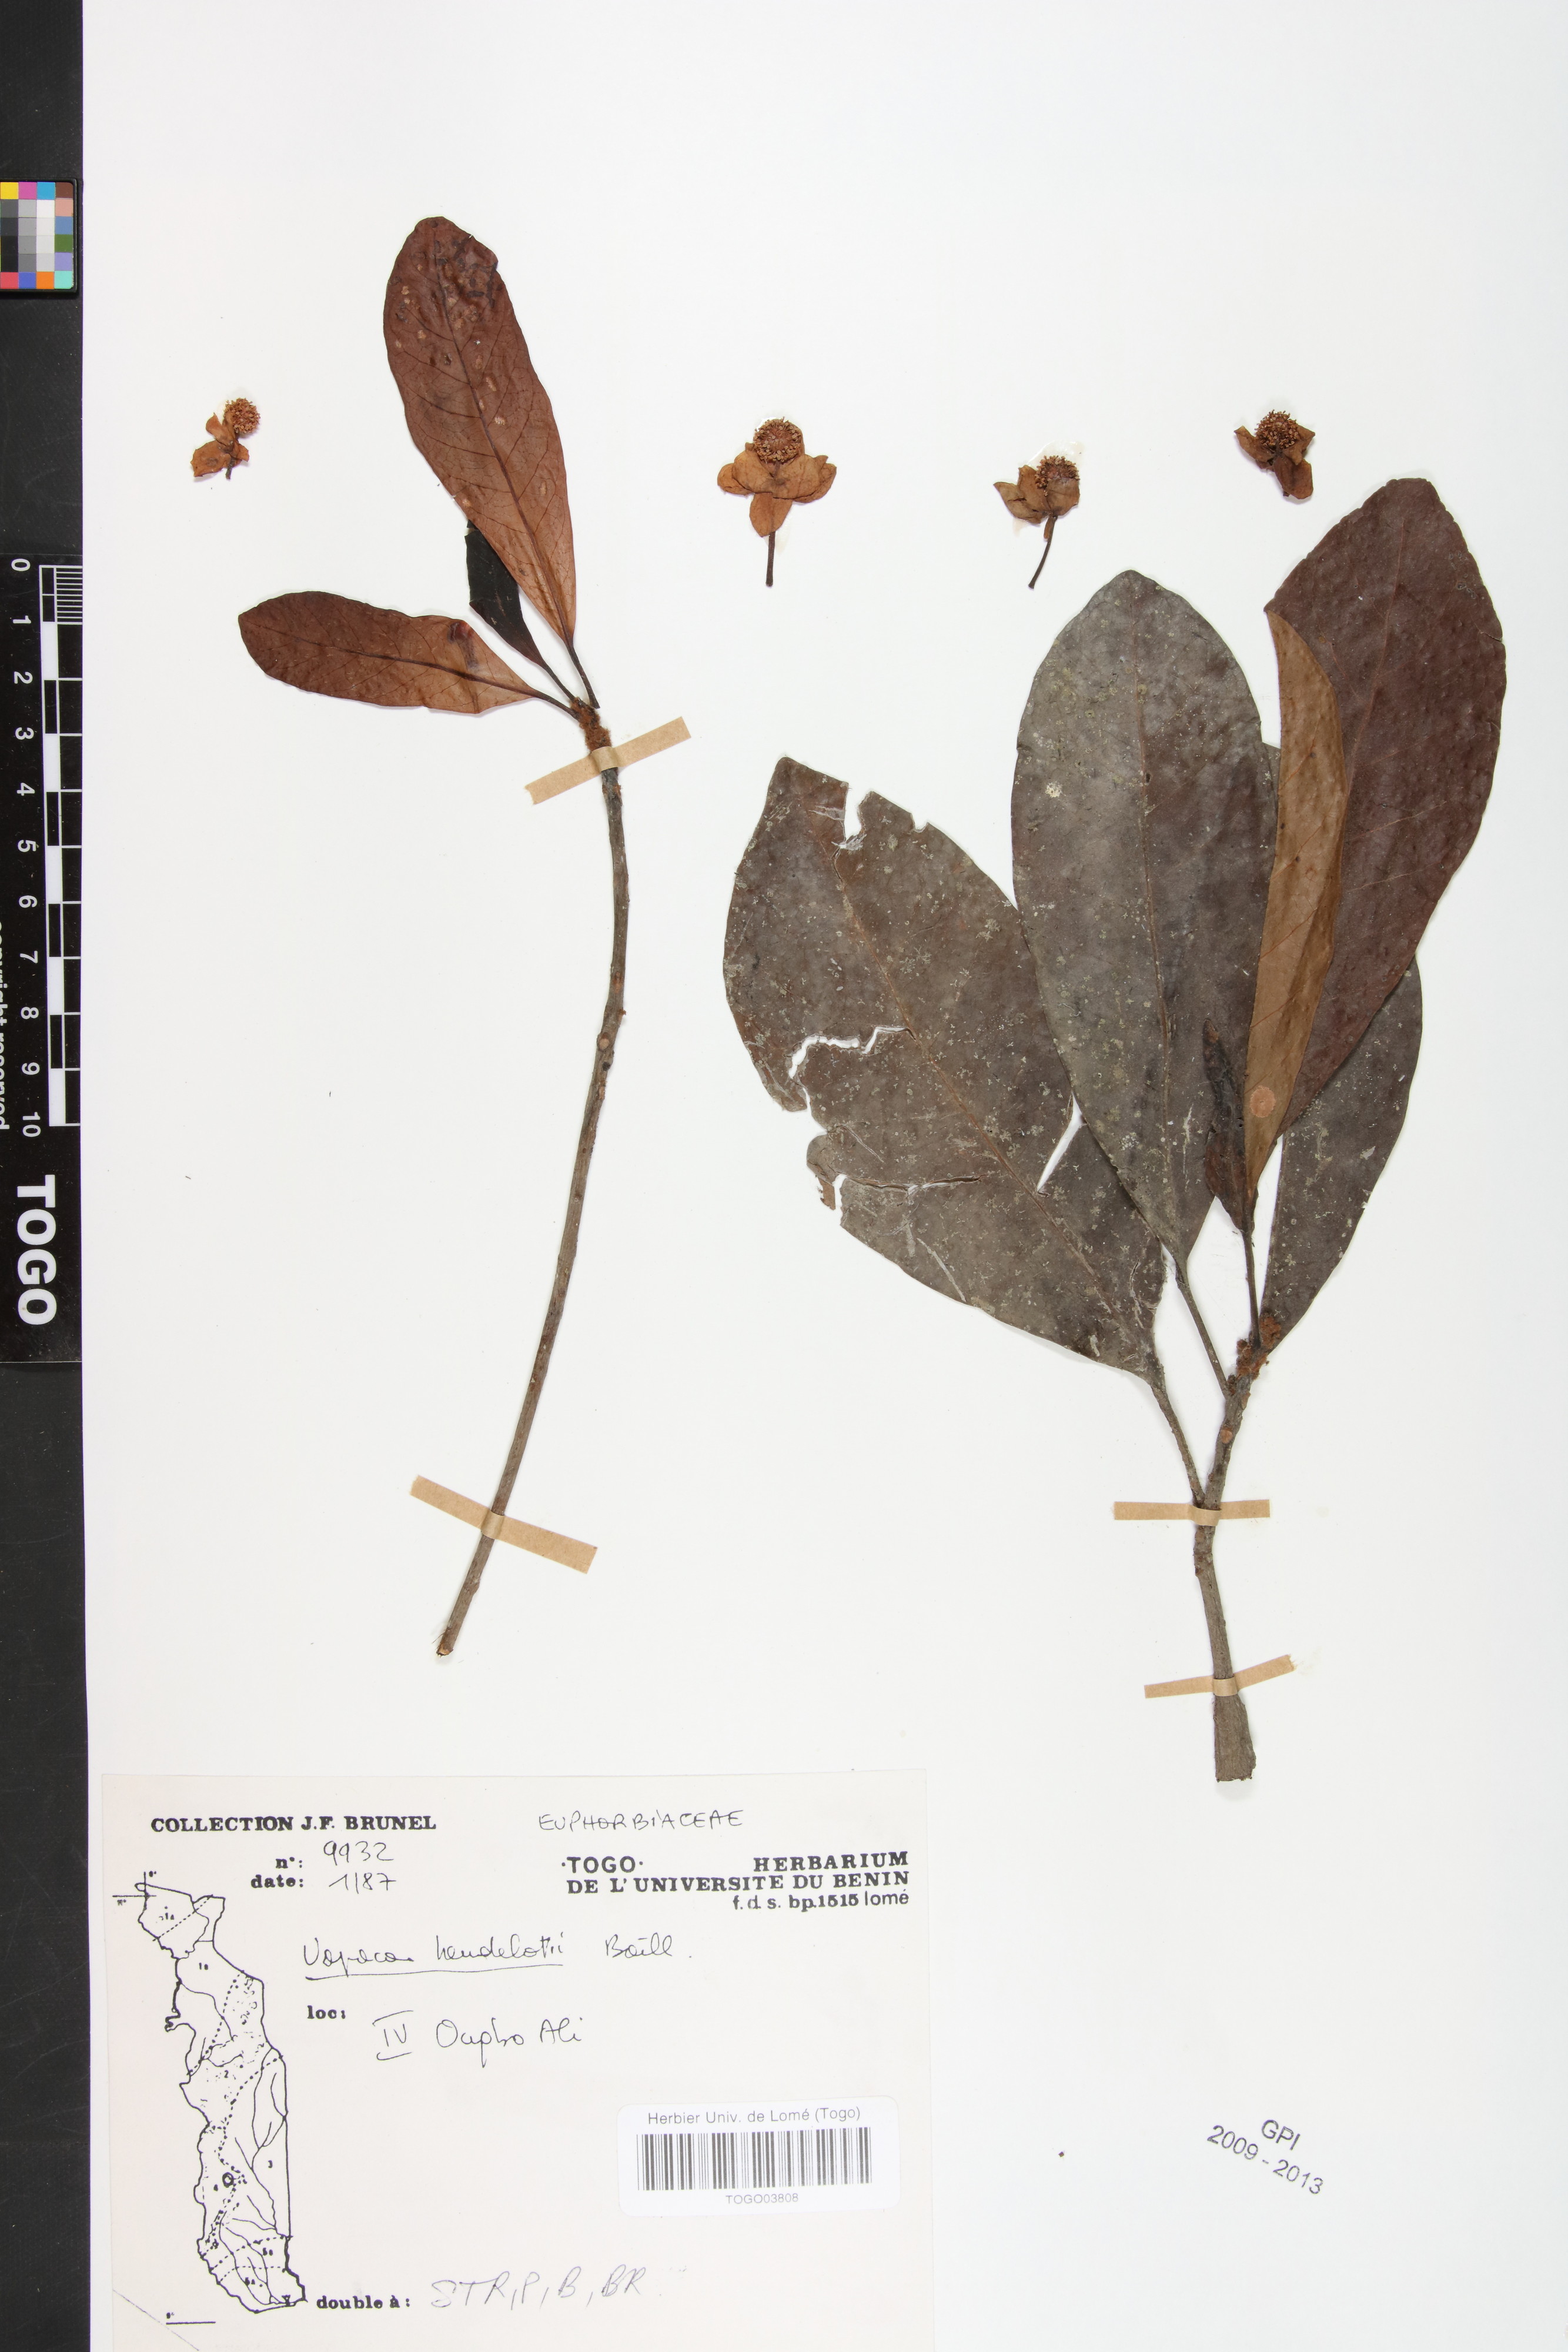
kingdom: Plantae
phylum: Tracheophyta
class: Magnoliopsida
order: Malpighiales
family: Phyllanthaceae
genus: Uapaca
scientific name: Uapaca heudelotii
